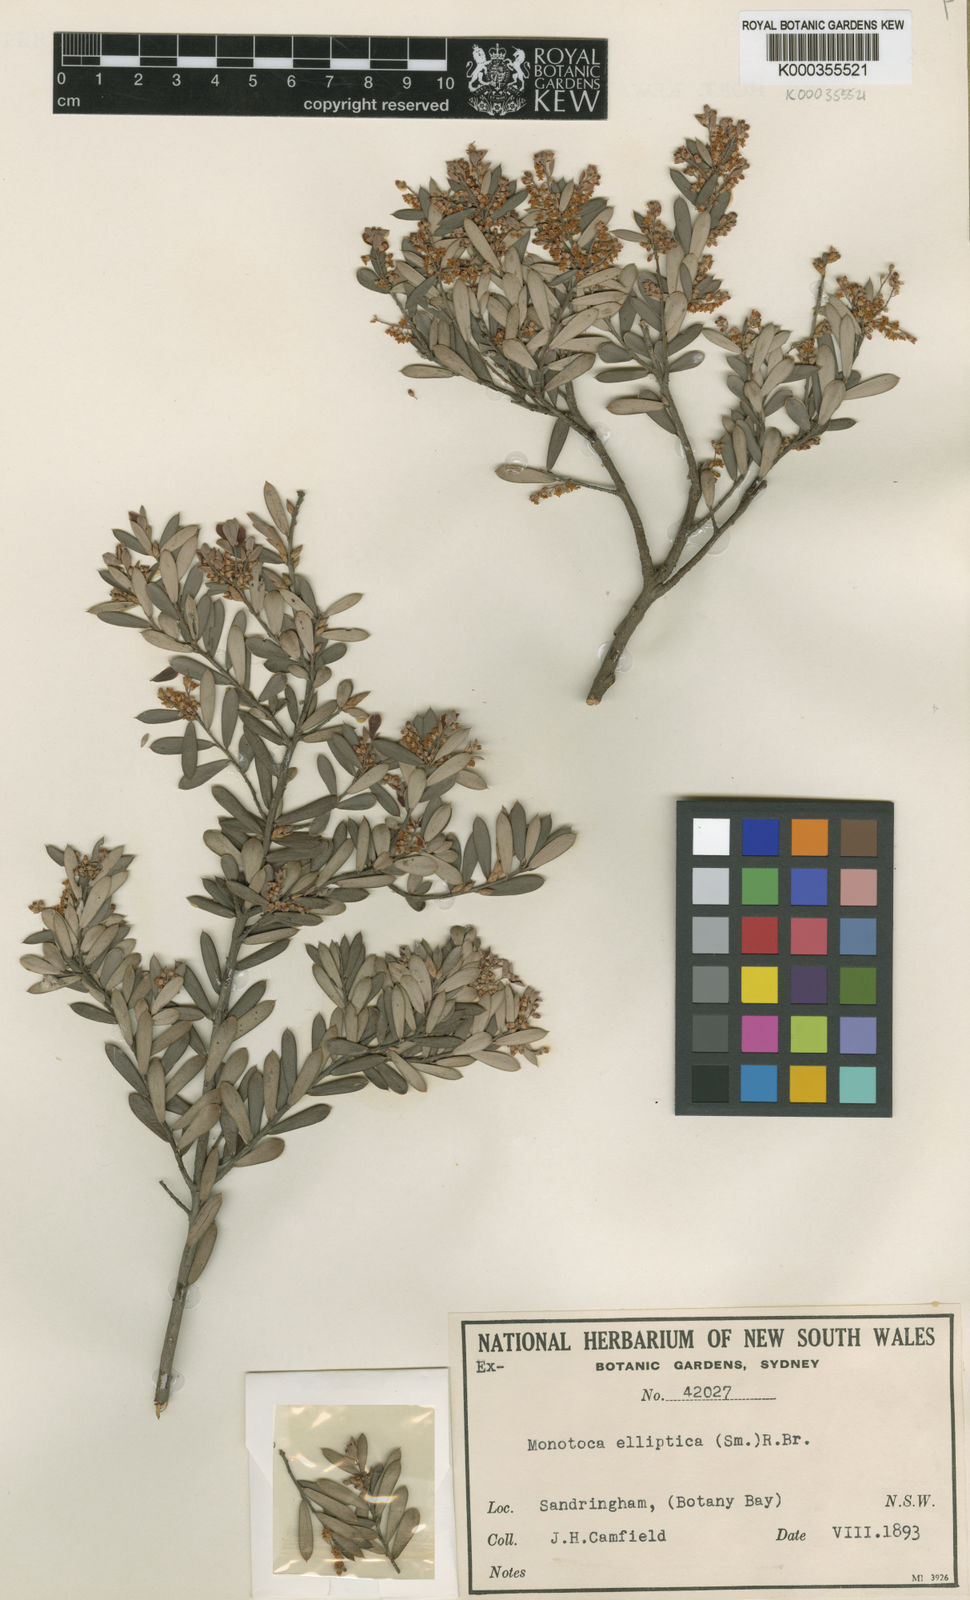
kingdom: Plantae
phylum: Tracheophyta
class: Magnoliopsida
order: Ericales
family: Ericaceae
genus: Monotoca
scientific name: Monotoca elliptica
